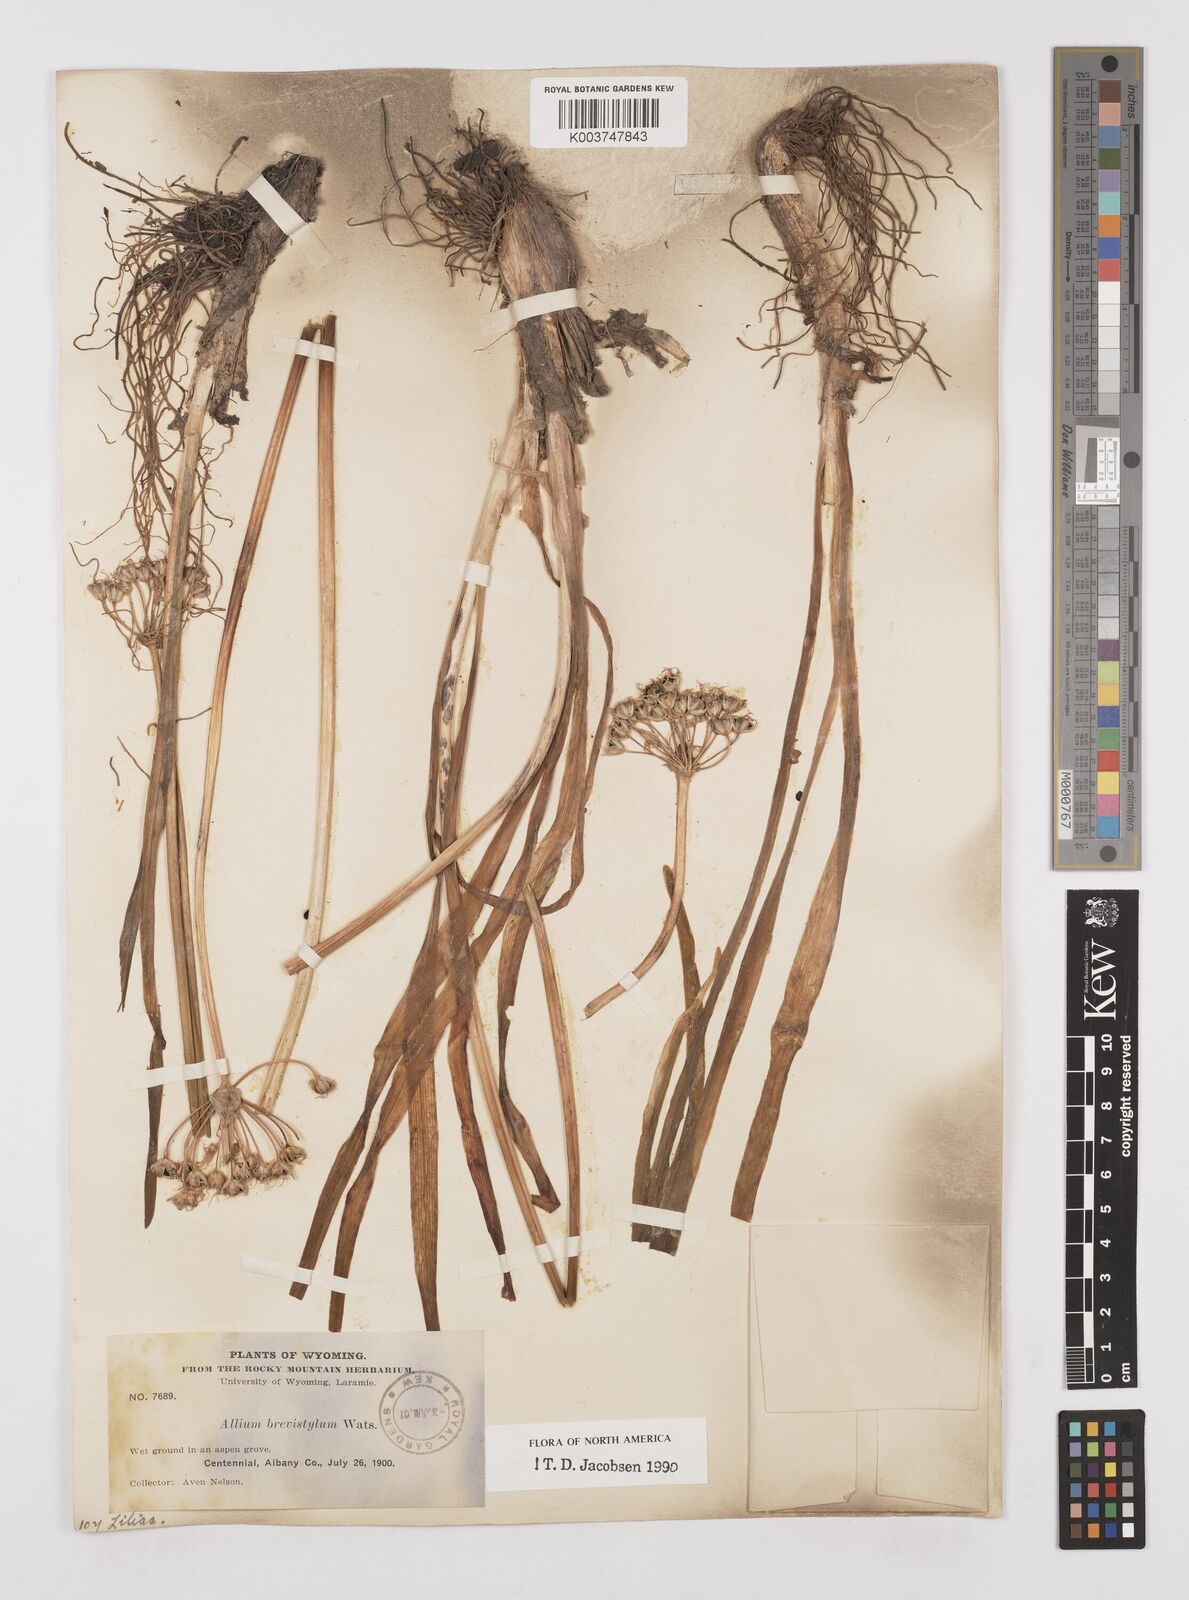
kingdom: Plantae
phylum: Tracheophyta
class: Liliopsida
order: Asparagales
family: Amaryllidaceae
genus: Allium
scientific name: Allium brevistylum
